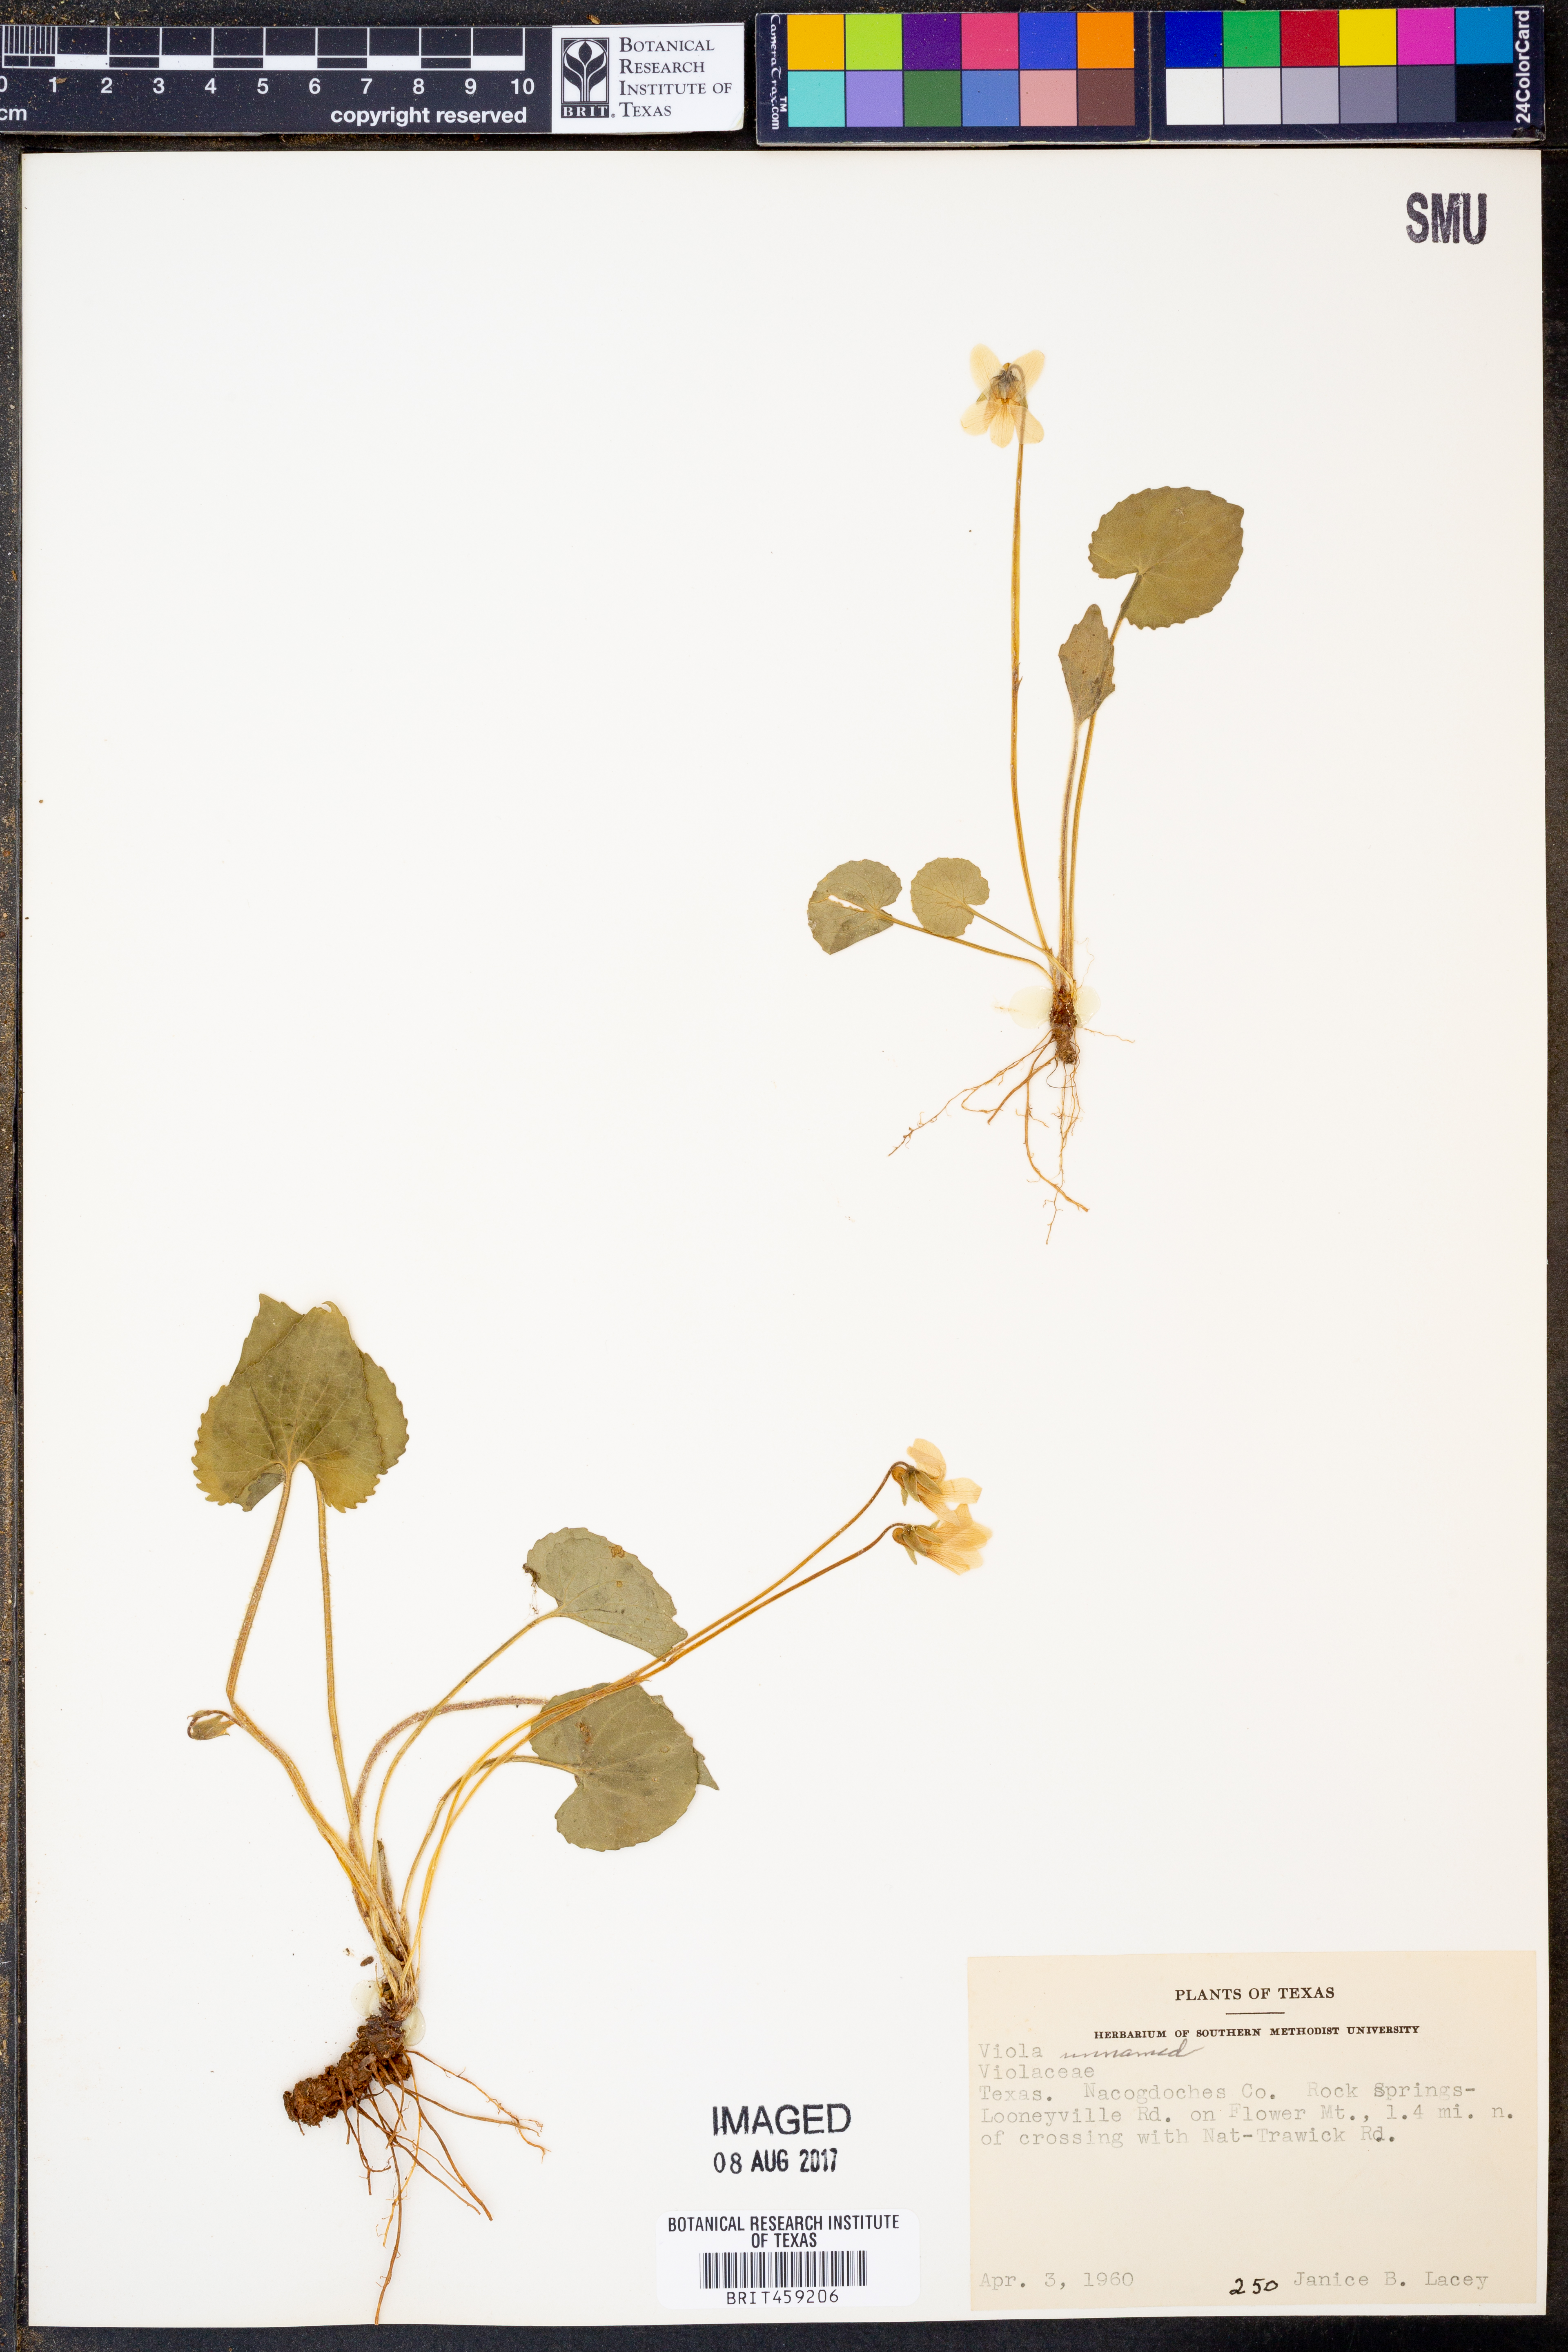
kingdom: Plantae
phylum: Tracheophyta
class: Magnoliopsida
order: Malpighiales
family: Violaceae
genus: Viola
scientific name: Viola
